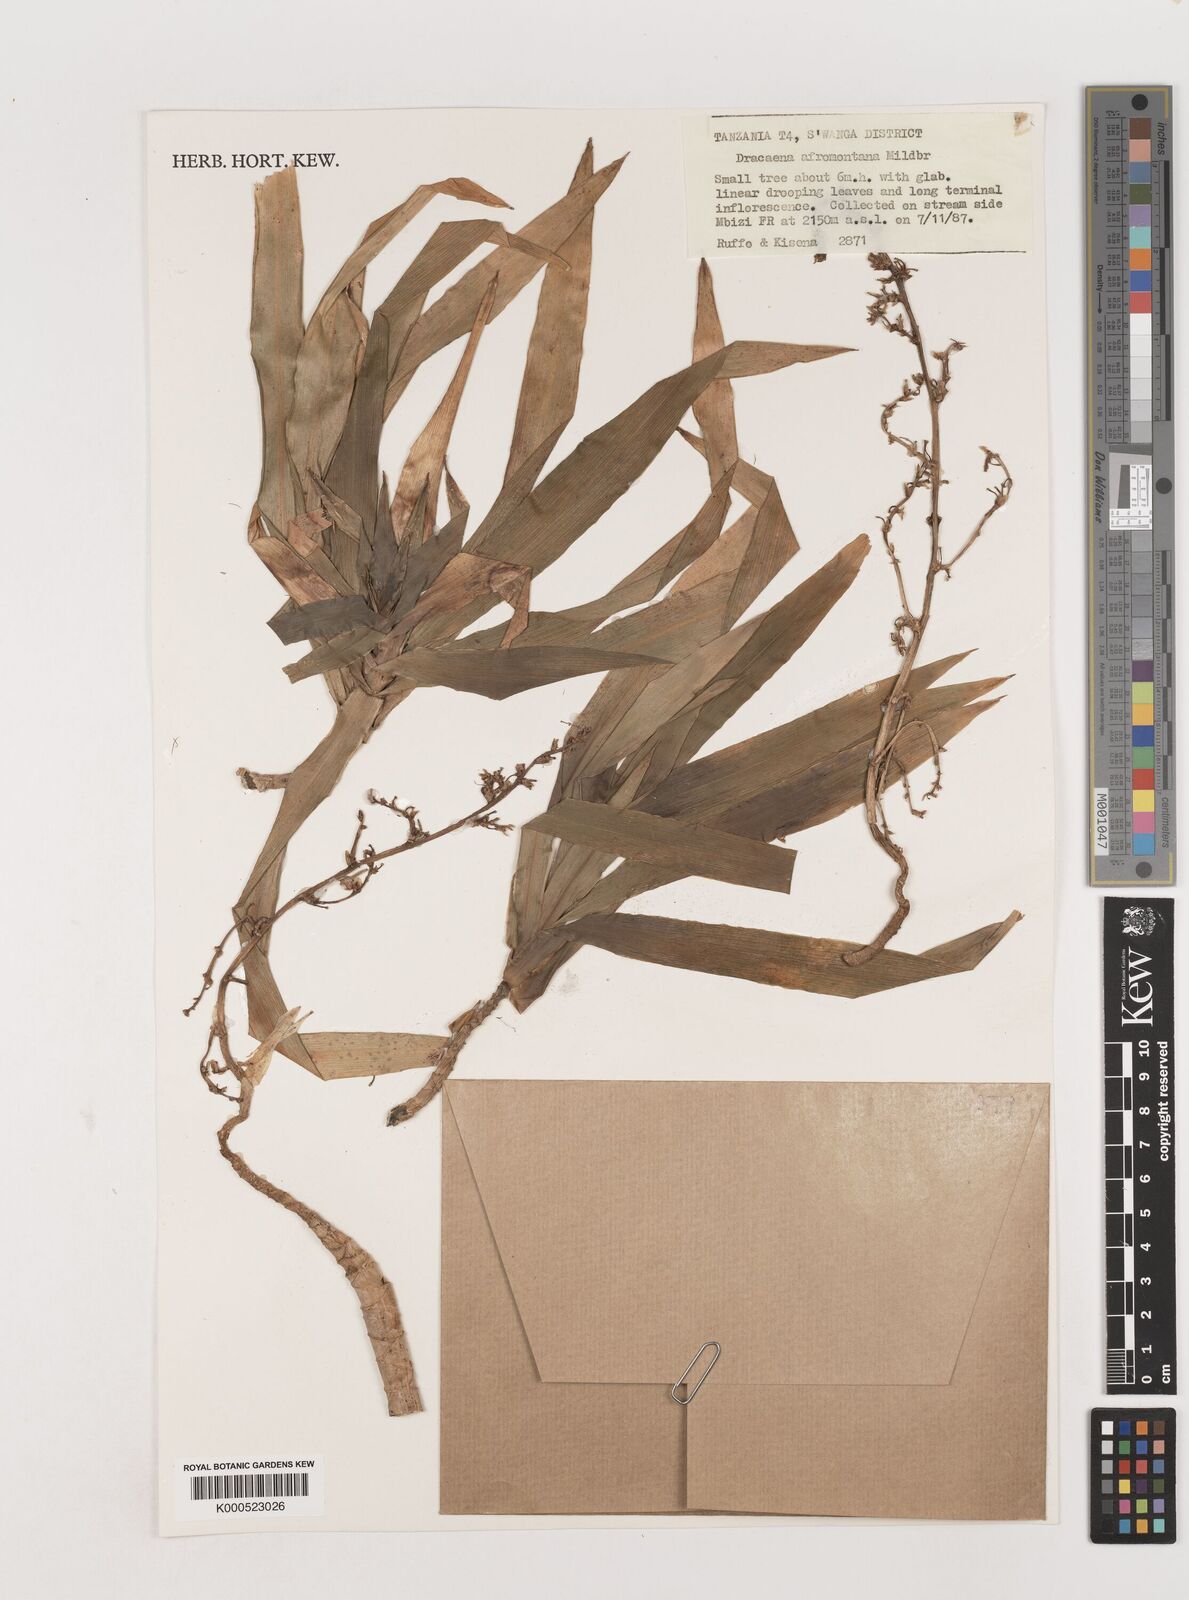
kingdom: Plantae
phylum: Tracheophyta
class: Liliopsida
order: Asparagales
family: Asparagaceae
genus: Dracaena
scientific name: Dracaena afromontana
